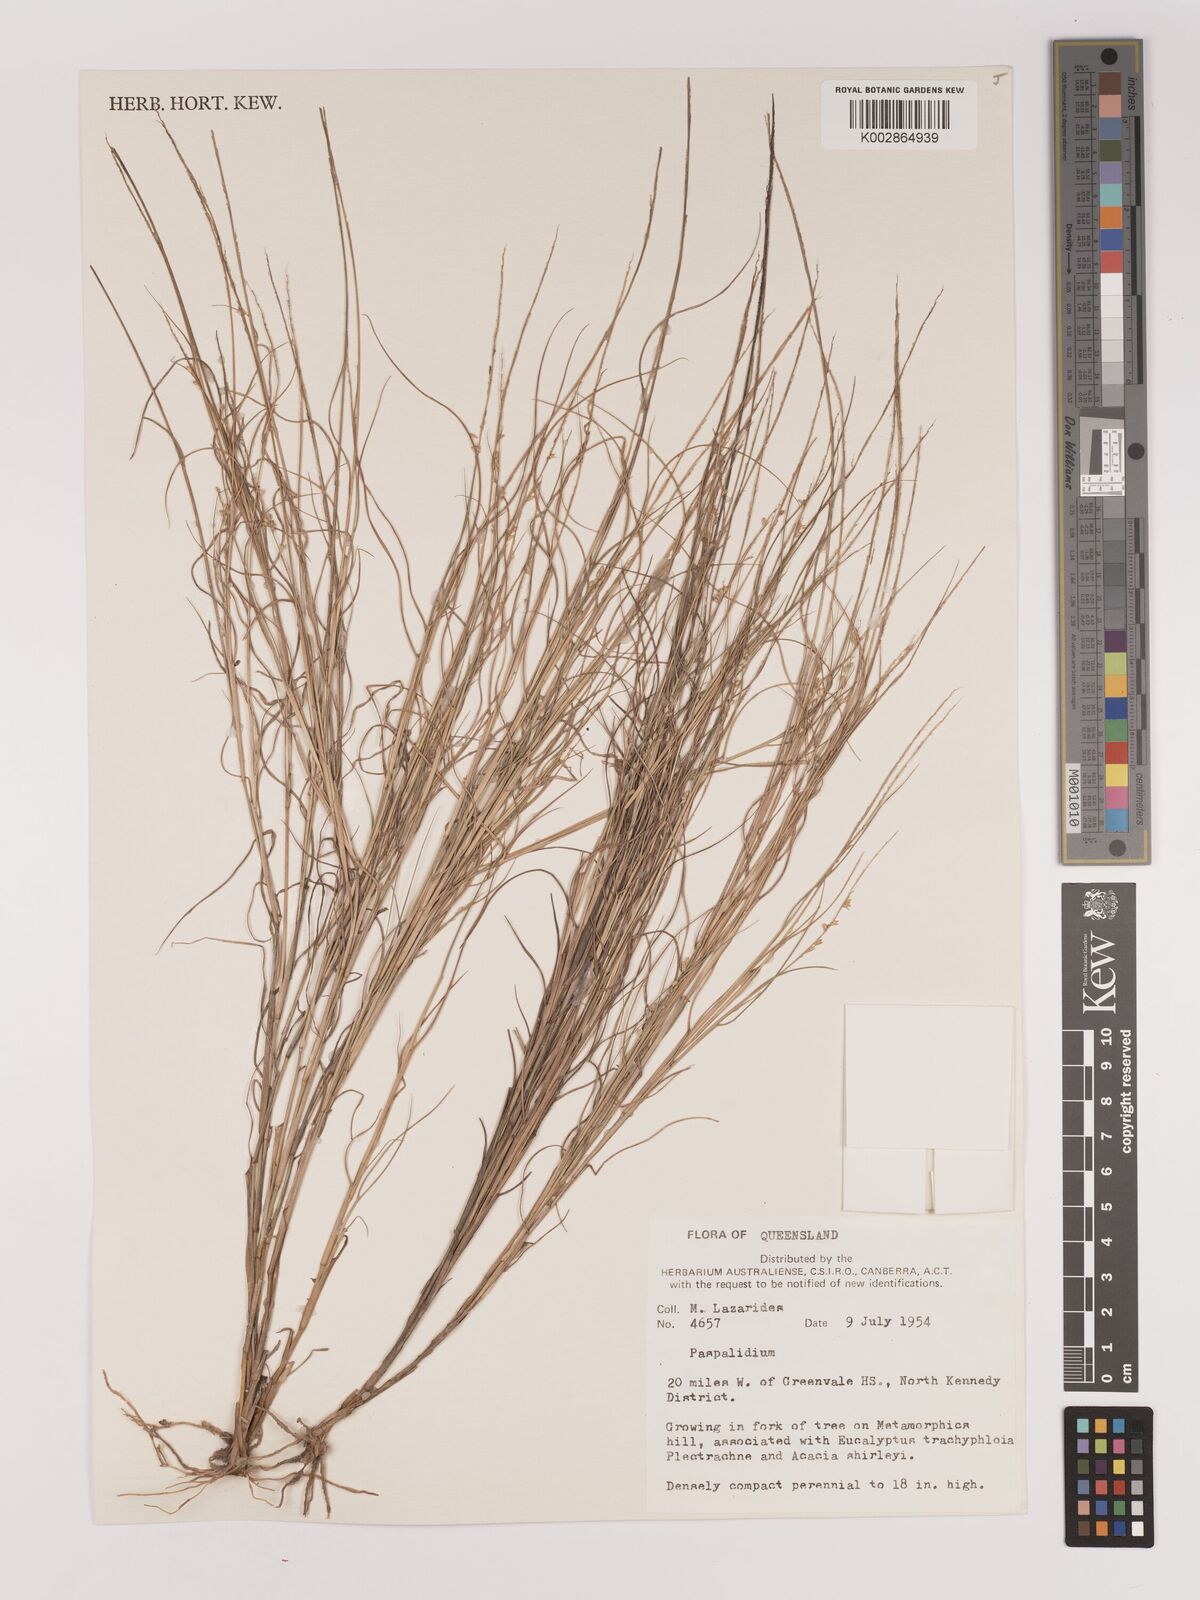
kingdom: Plantae
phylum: Tracheophyta
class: Liliopsida
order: Poales
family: Poaceae
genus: Setaria
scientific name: Setaria
